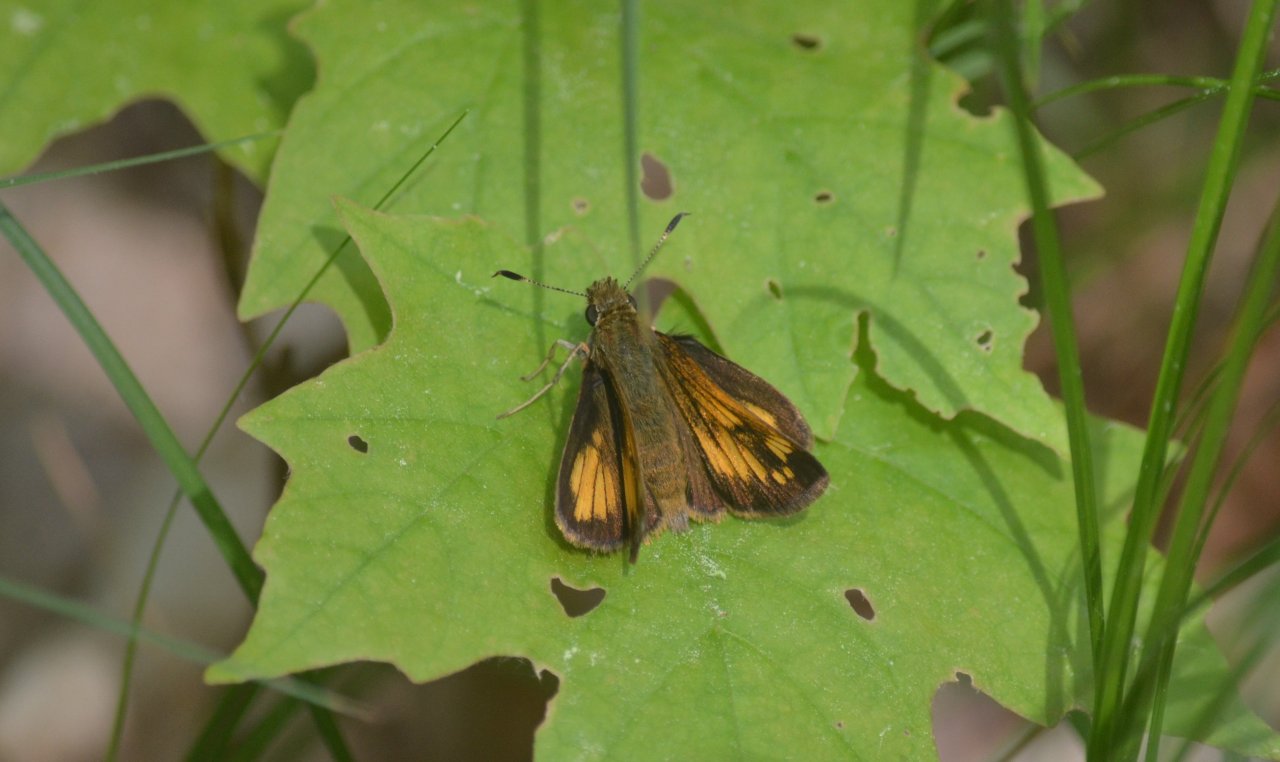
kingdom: Animalia
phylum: Arthropoda
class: Insecta
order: Lepidoptera
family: Hesperiidae
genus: Lon
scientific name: Lon hobomok
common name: Hobomok Skipper
